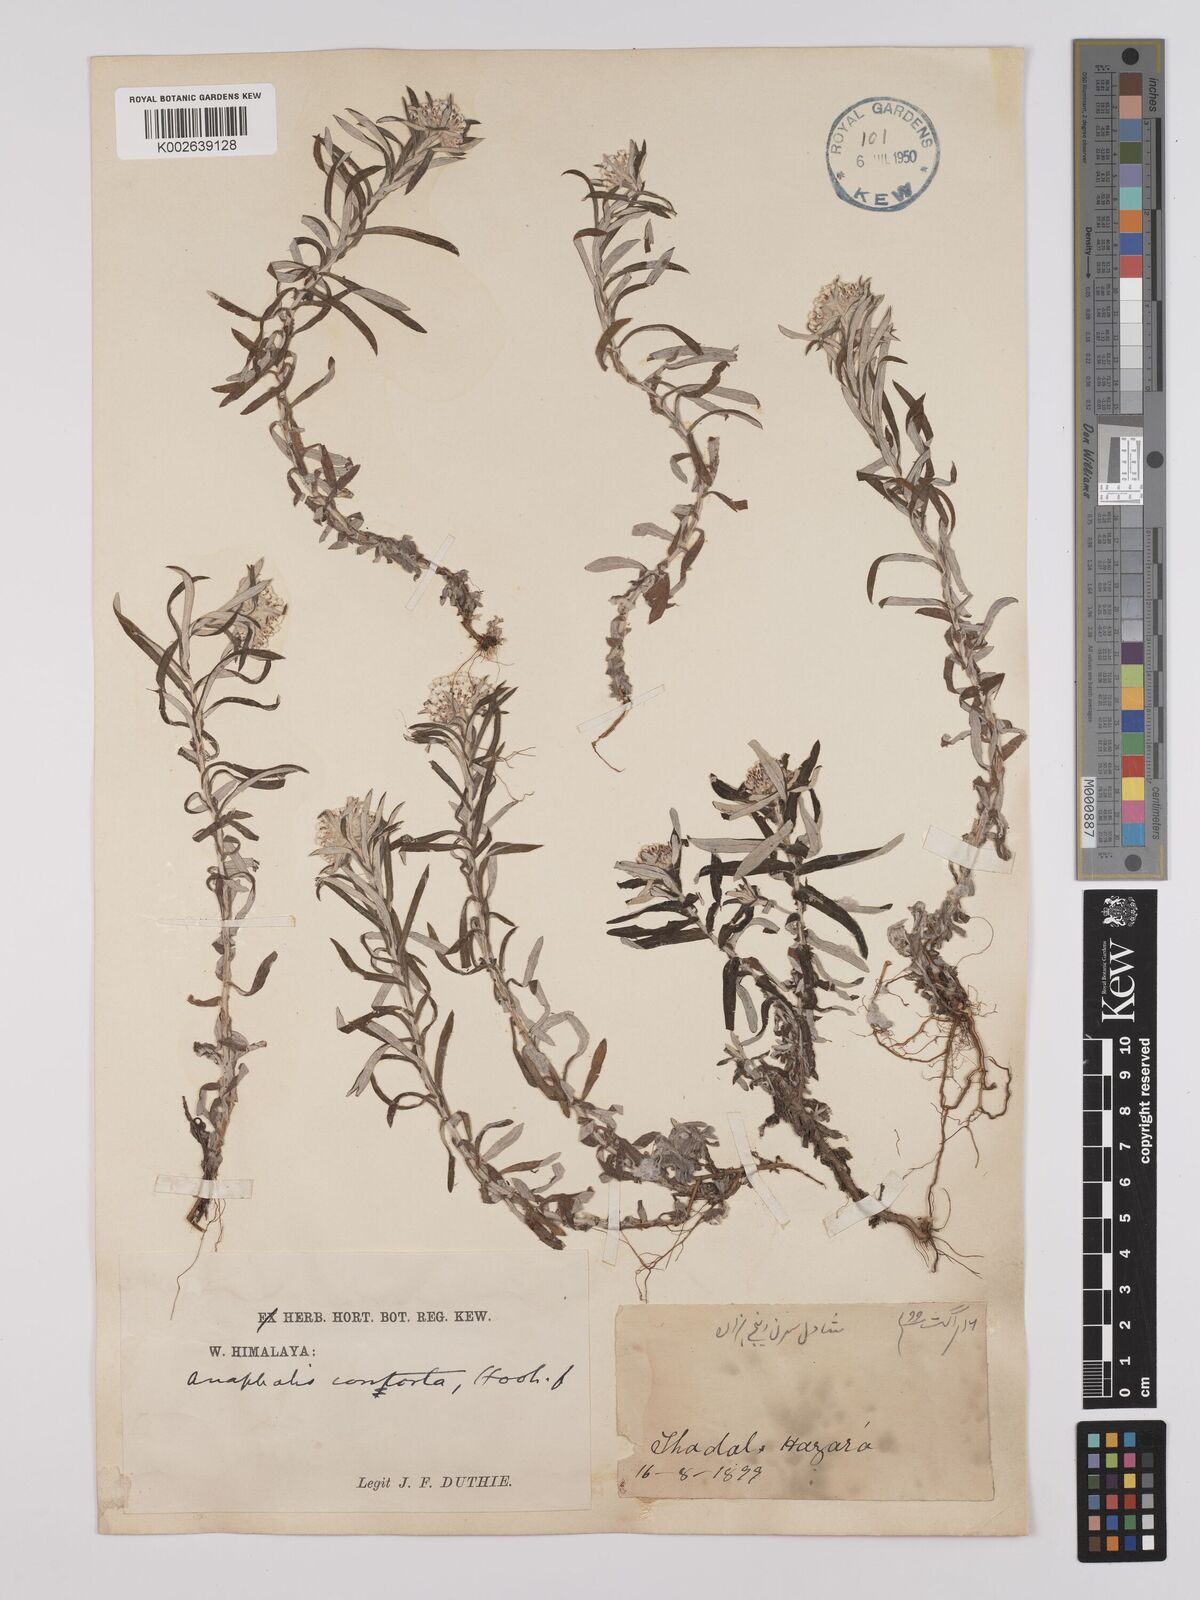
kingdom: Plantae
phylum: Tracheophyta
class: Magnoliopsida
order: Asterales
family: Asteraceae
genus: Anaphalis
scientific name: Anaphalis contorta
